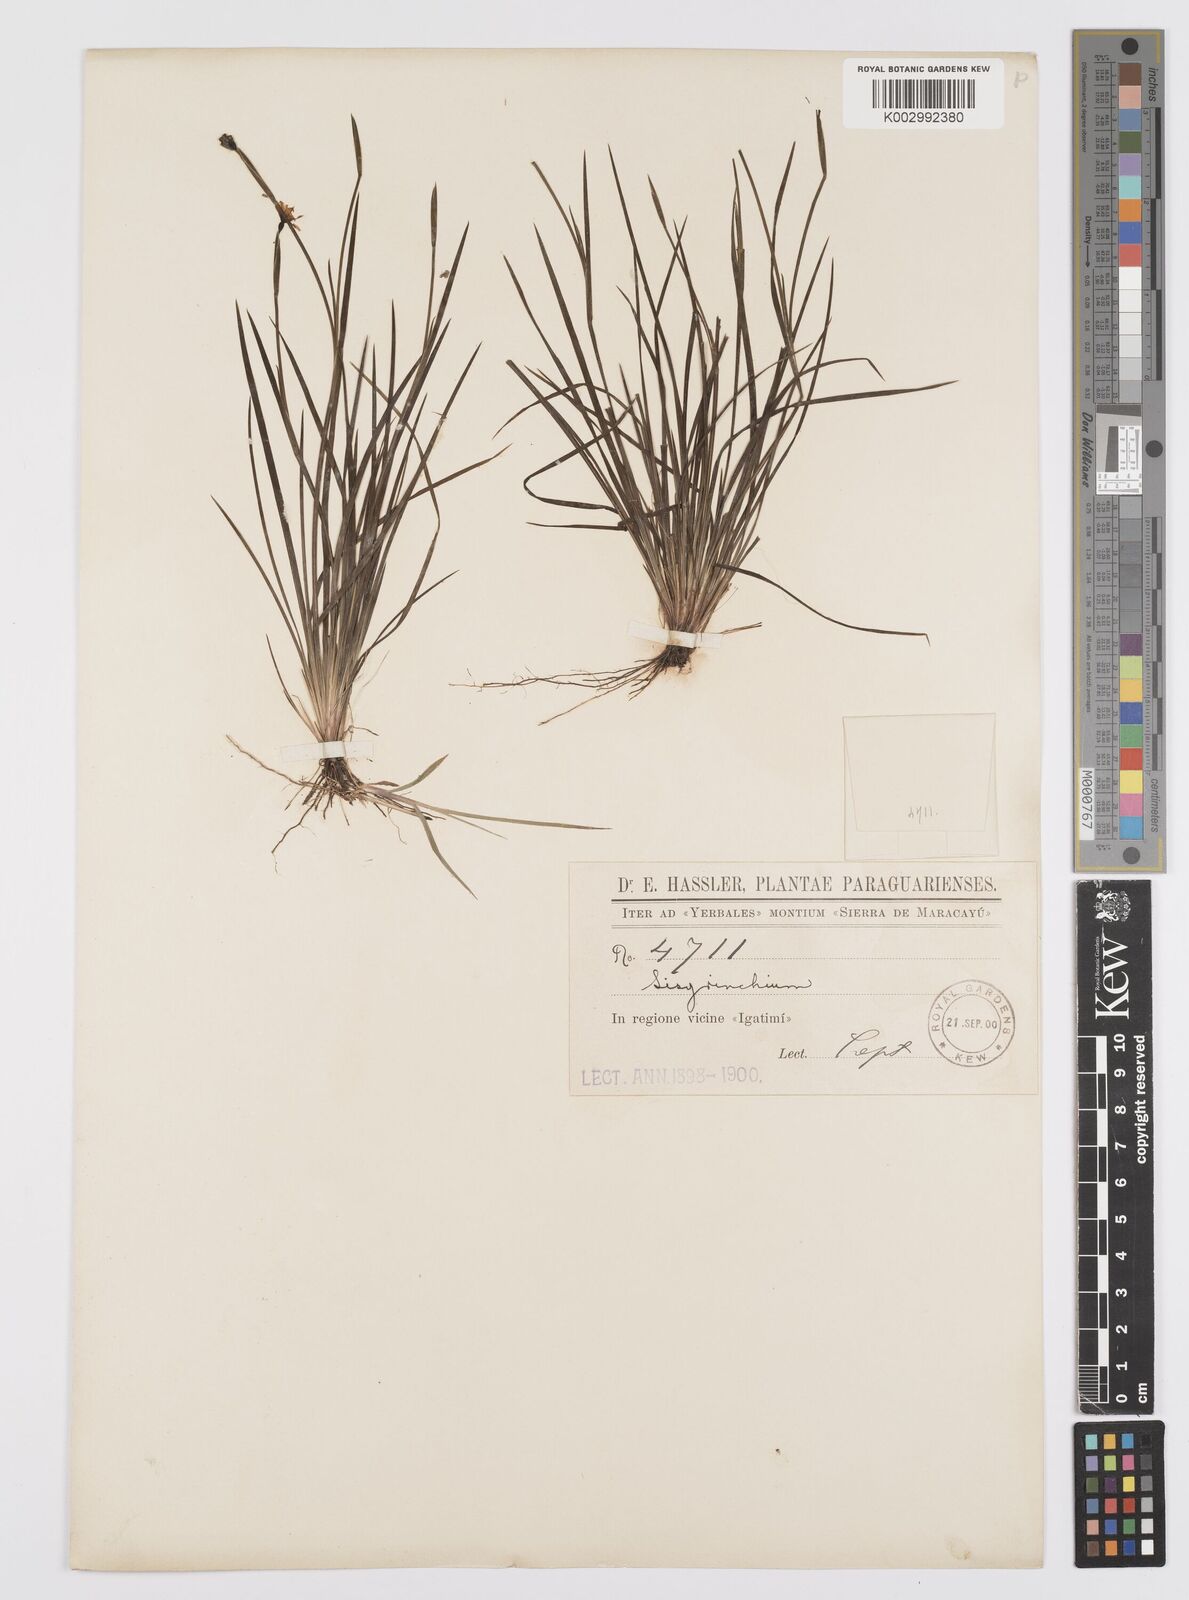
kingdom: Plantae
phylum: Tracheophyta
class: Liliopsida
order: Asparagales
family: Iridaceae
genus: Sisyrinchium
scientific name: Sisyrinchium
